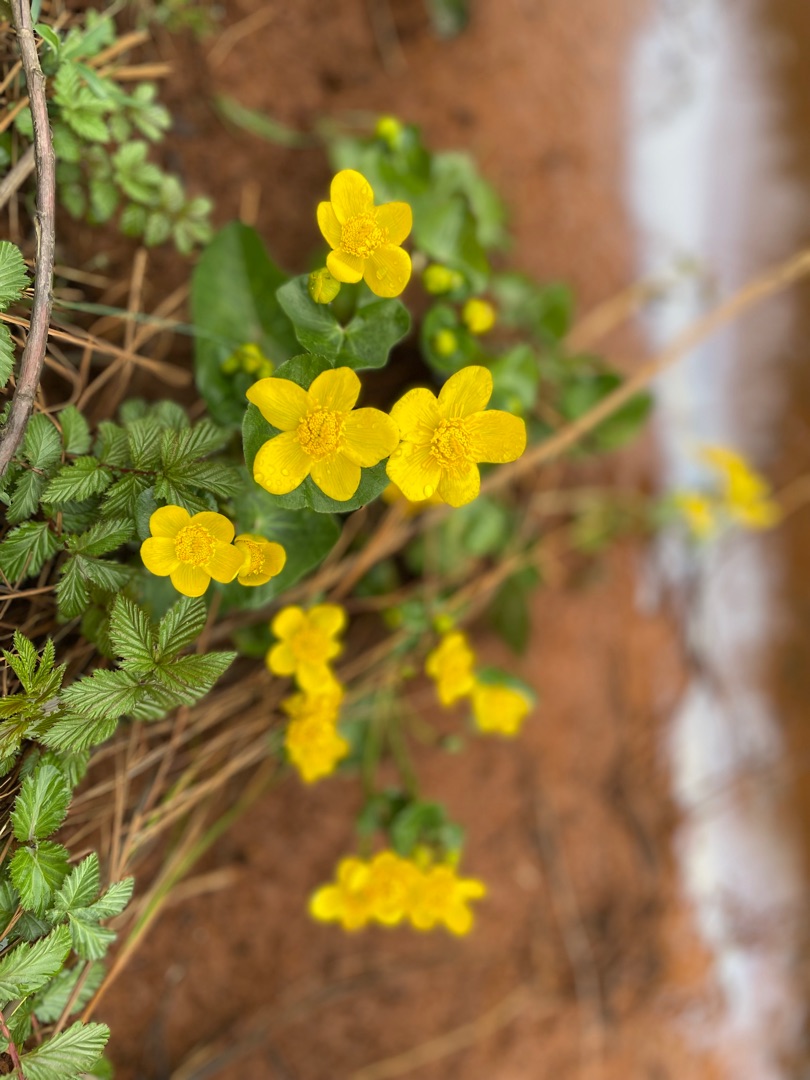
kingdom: Plantae
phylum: Tracheophyta
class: Magnoliopsida
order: Ranunculales
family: Ranunculaceae
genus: Caltha
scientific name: Caltha palustris
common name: Eng-kabbeleje
